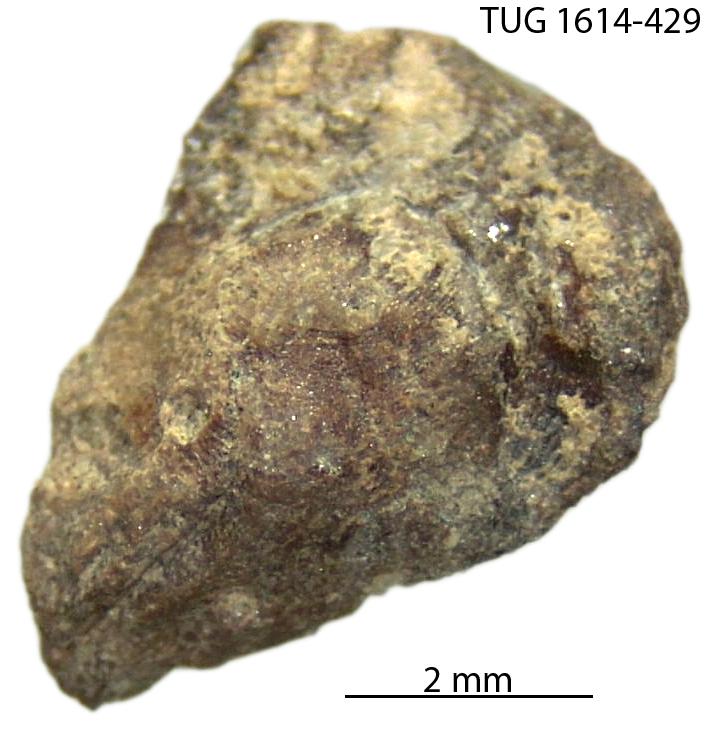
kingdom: Animalia
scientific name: Animalia
